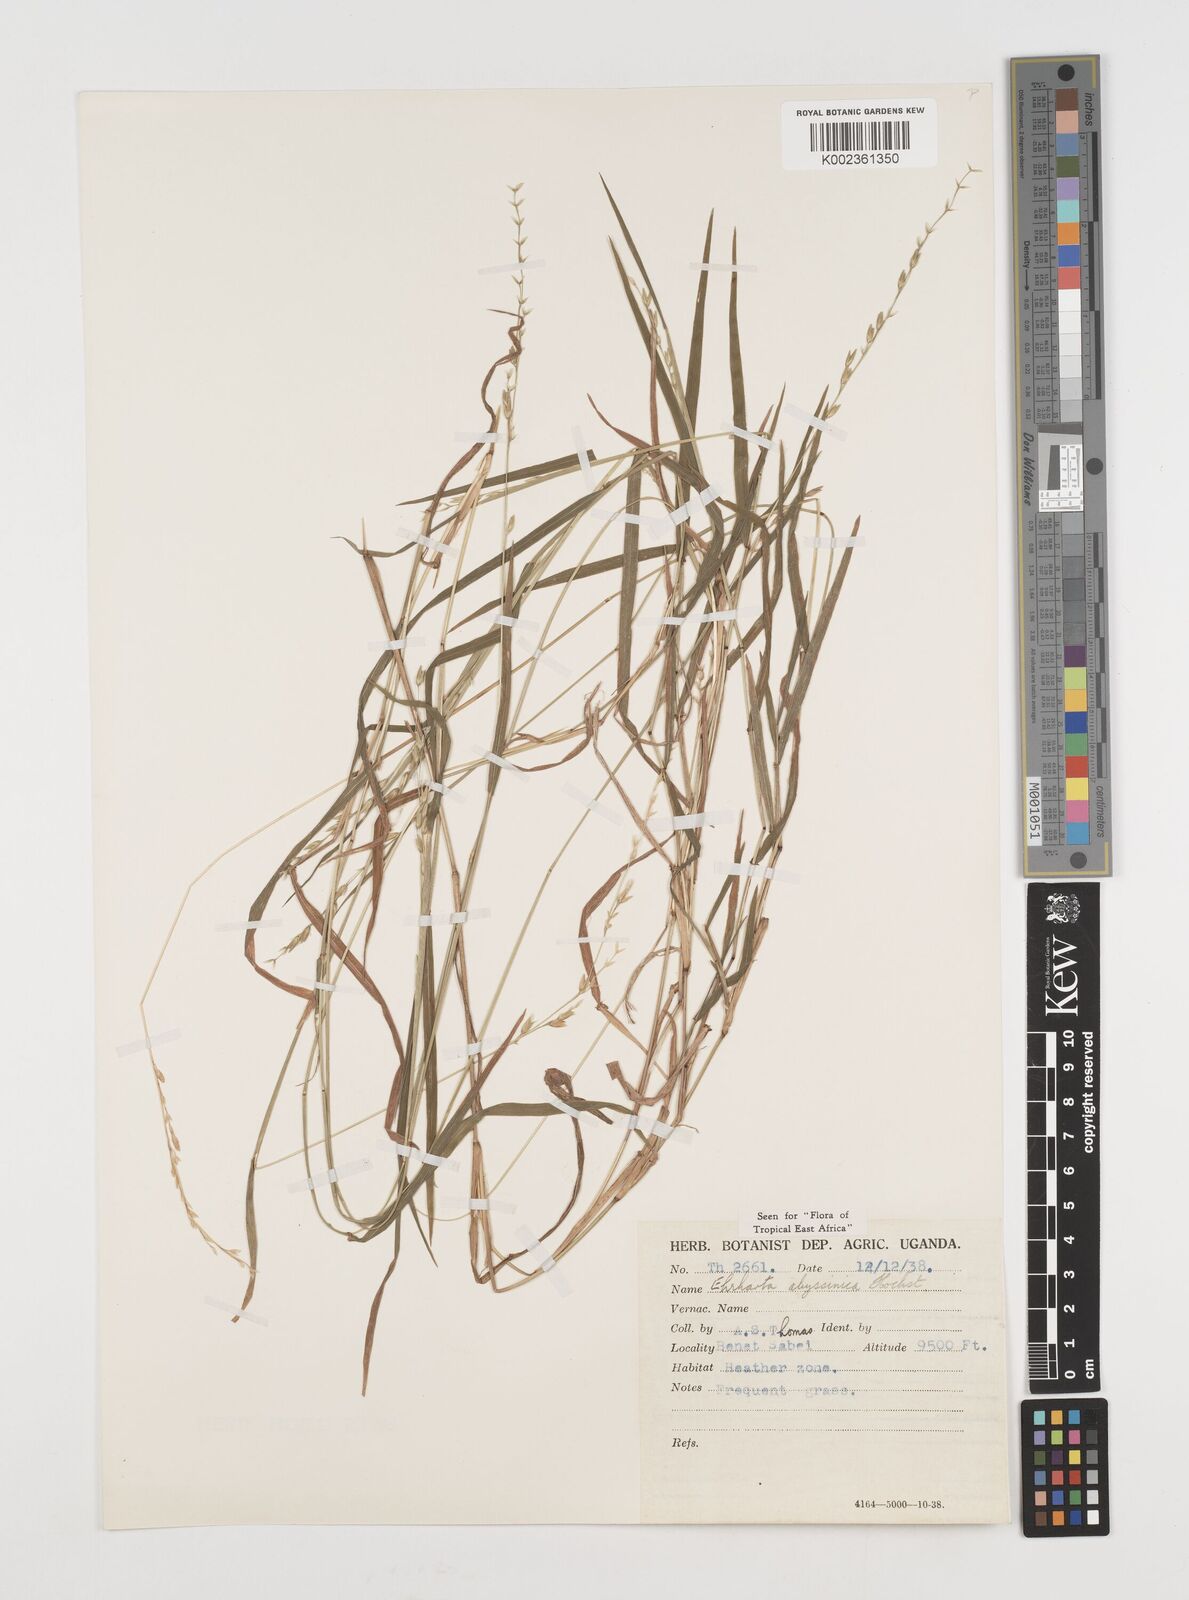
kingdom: Plantae
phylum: Tracheophyta
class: Liliopsida
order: Poales
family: Poaceae
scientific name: Poaceae
